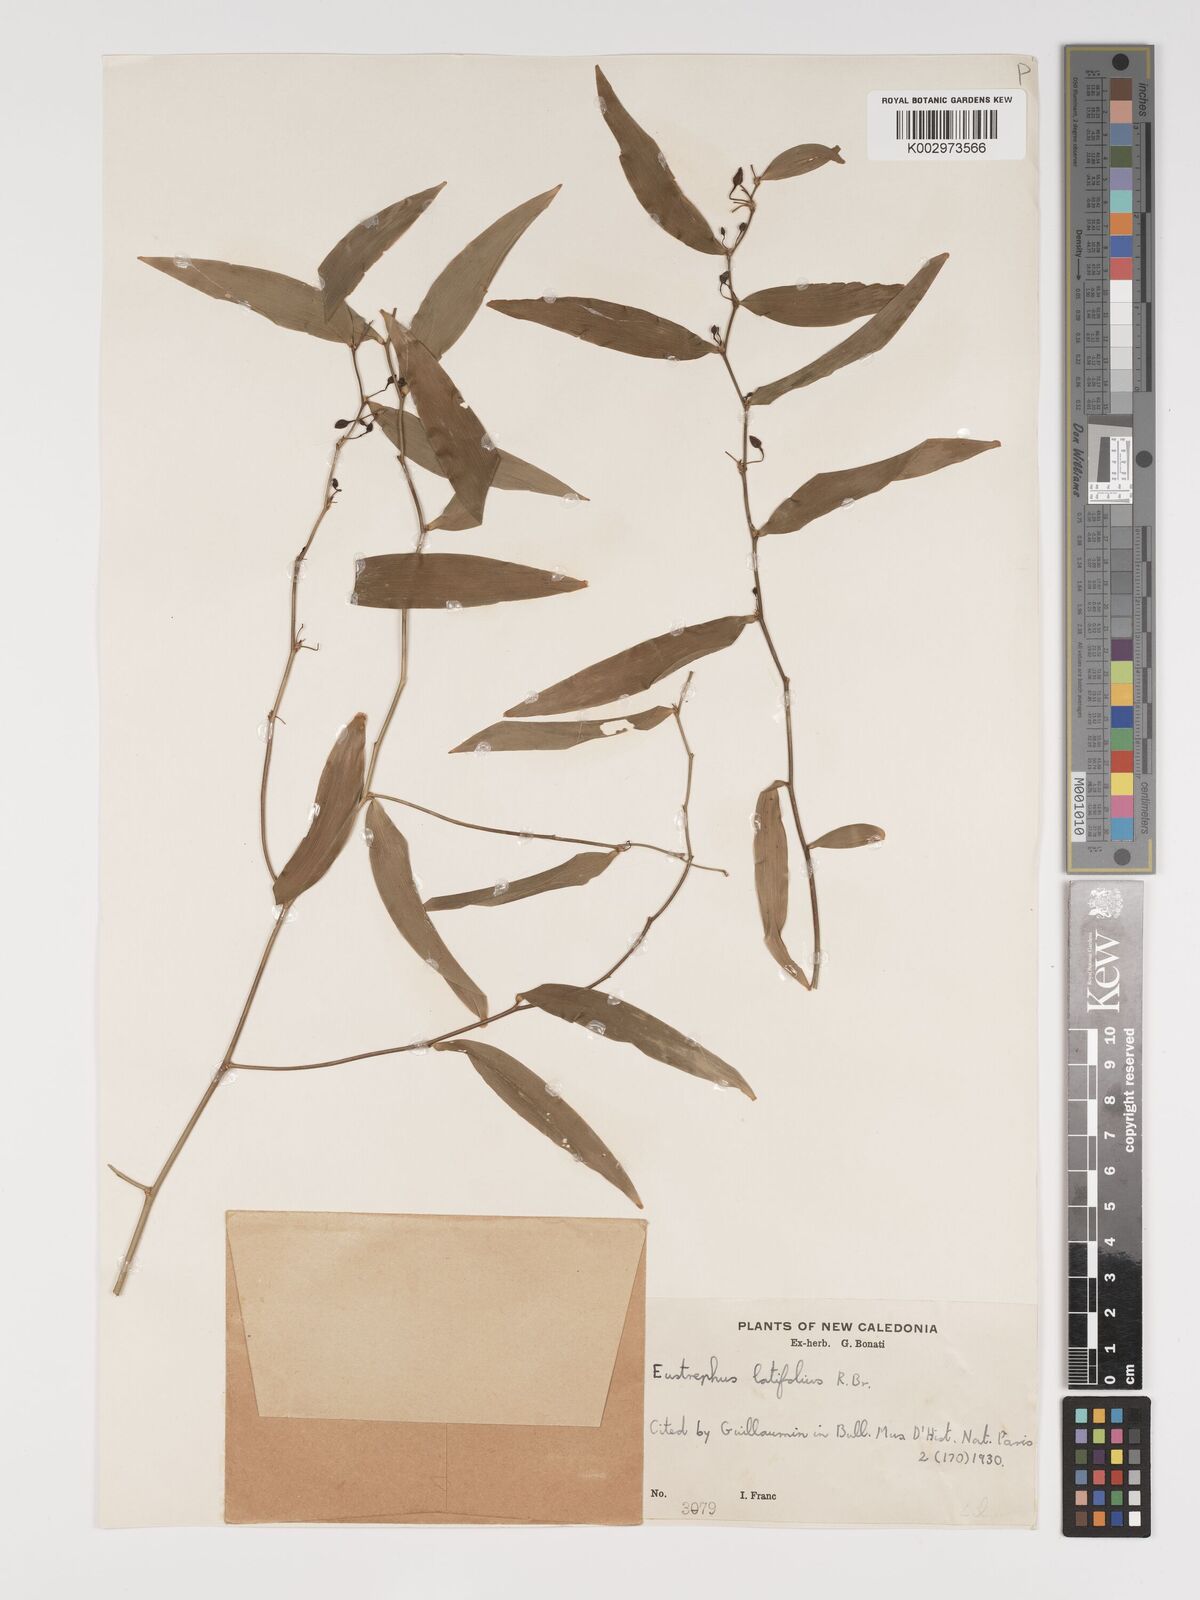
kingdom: Plantae
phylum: Tracheophyta
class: Liliopsida
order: Asparagales
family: Asparagaceae
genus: Eustrephus
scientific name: Eustrephus latifolius
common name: Orangevine
